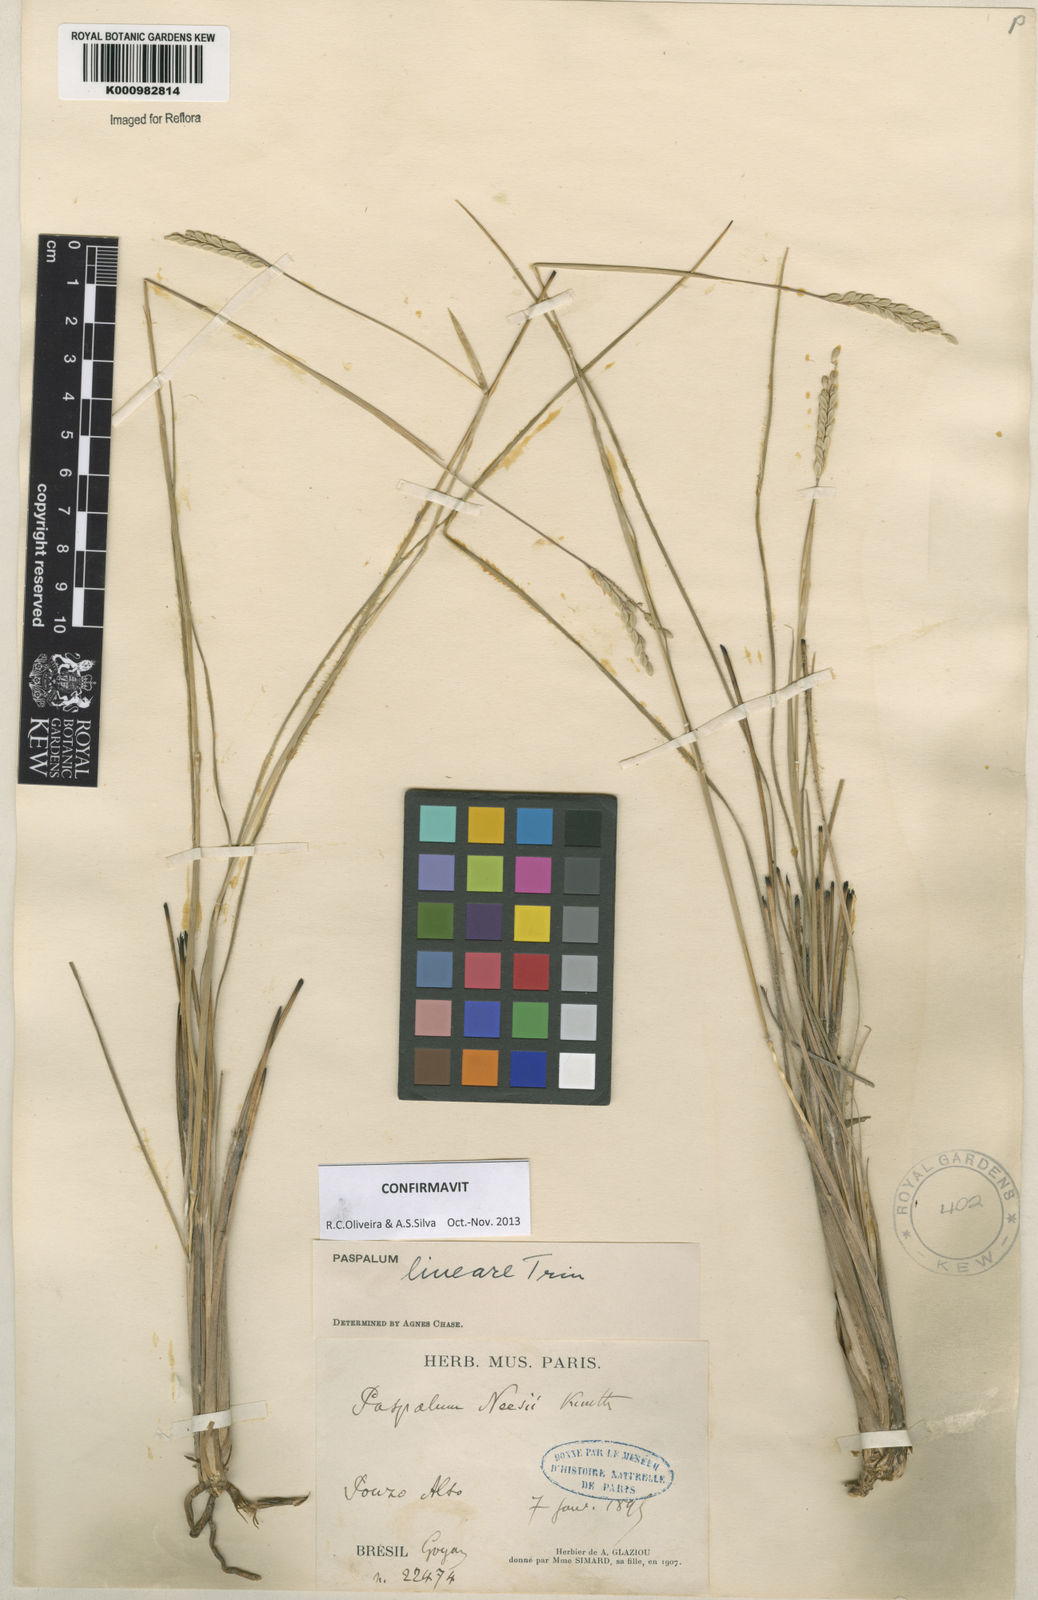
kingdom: Plantae
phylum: Tracheophyta
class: Liliopsida
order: Poales
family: Poaceae
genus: Paspalum
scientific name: Paspalum lineare
